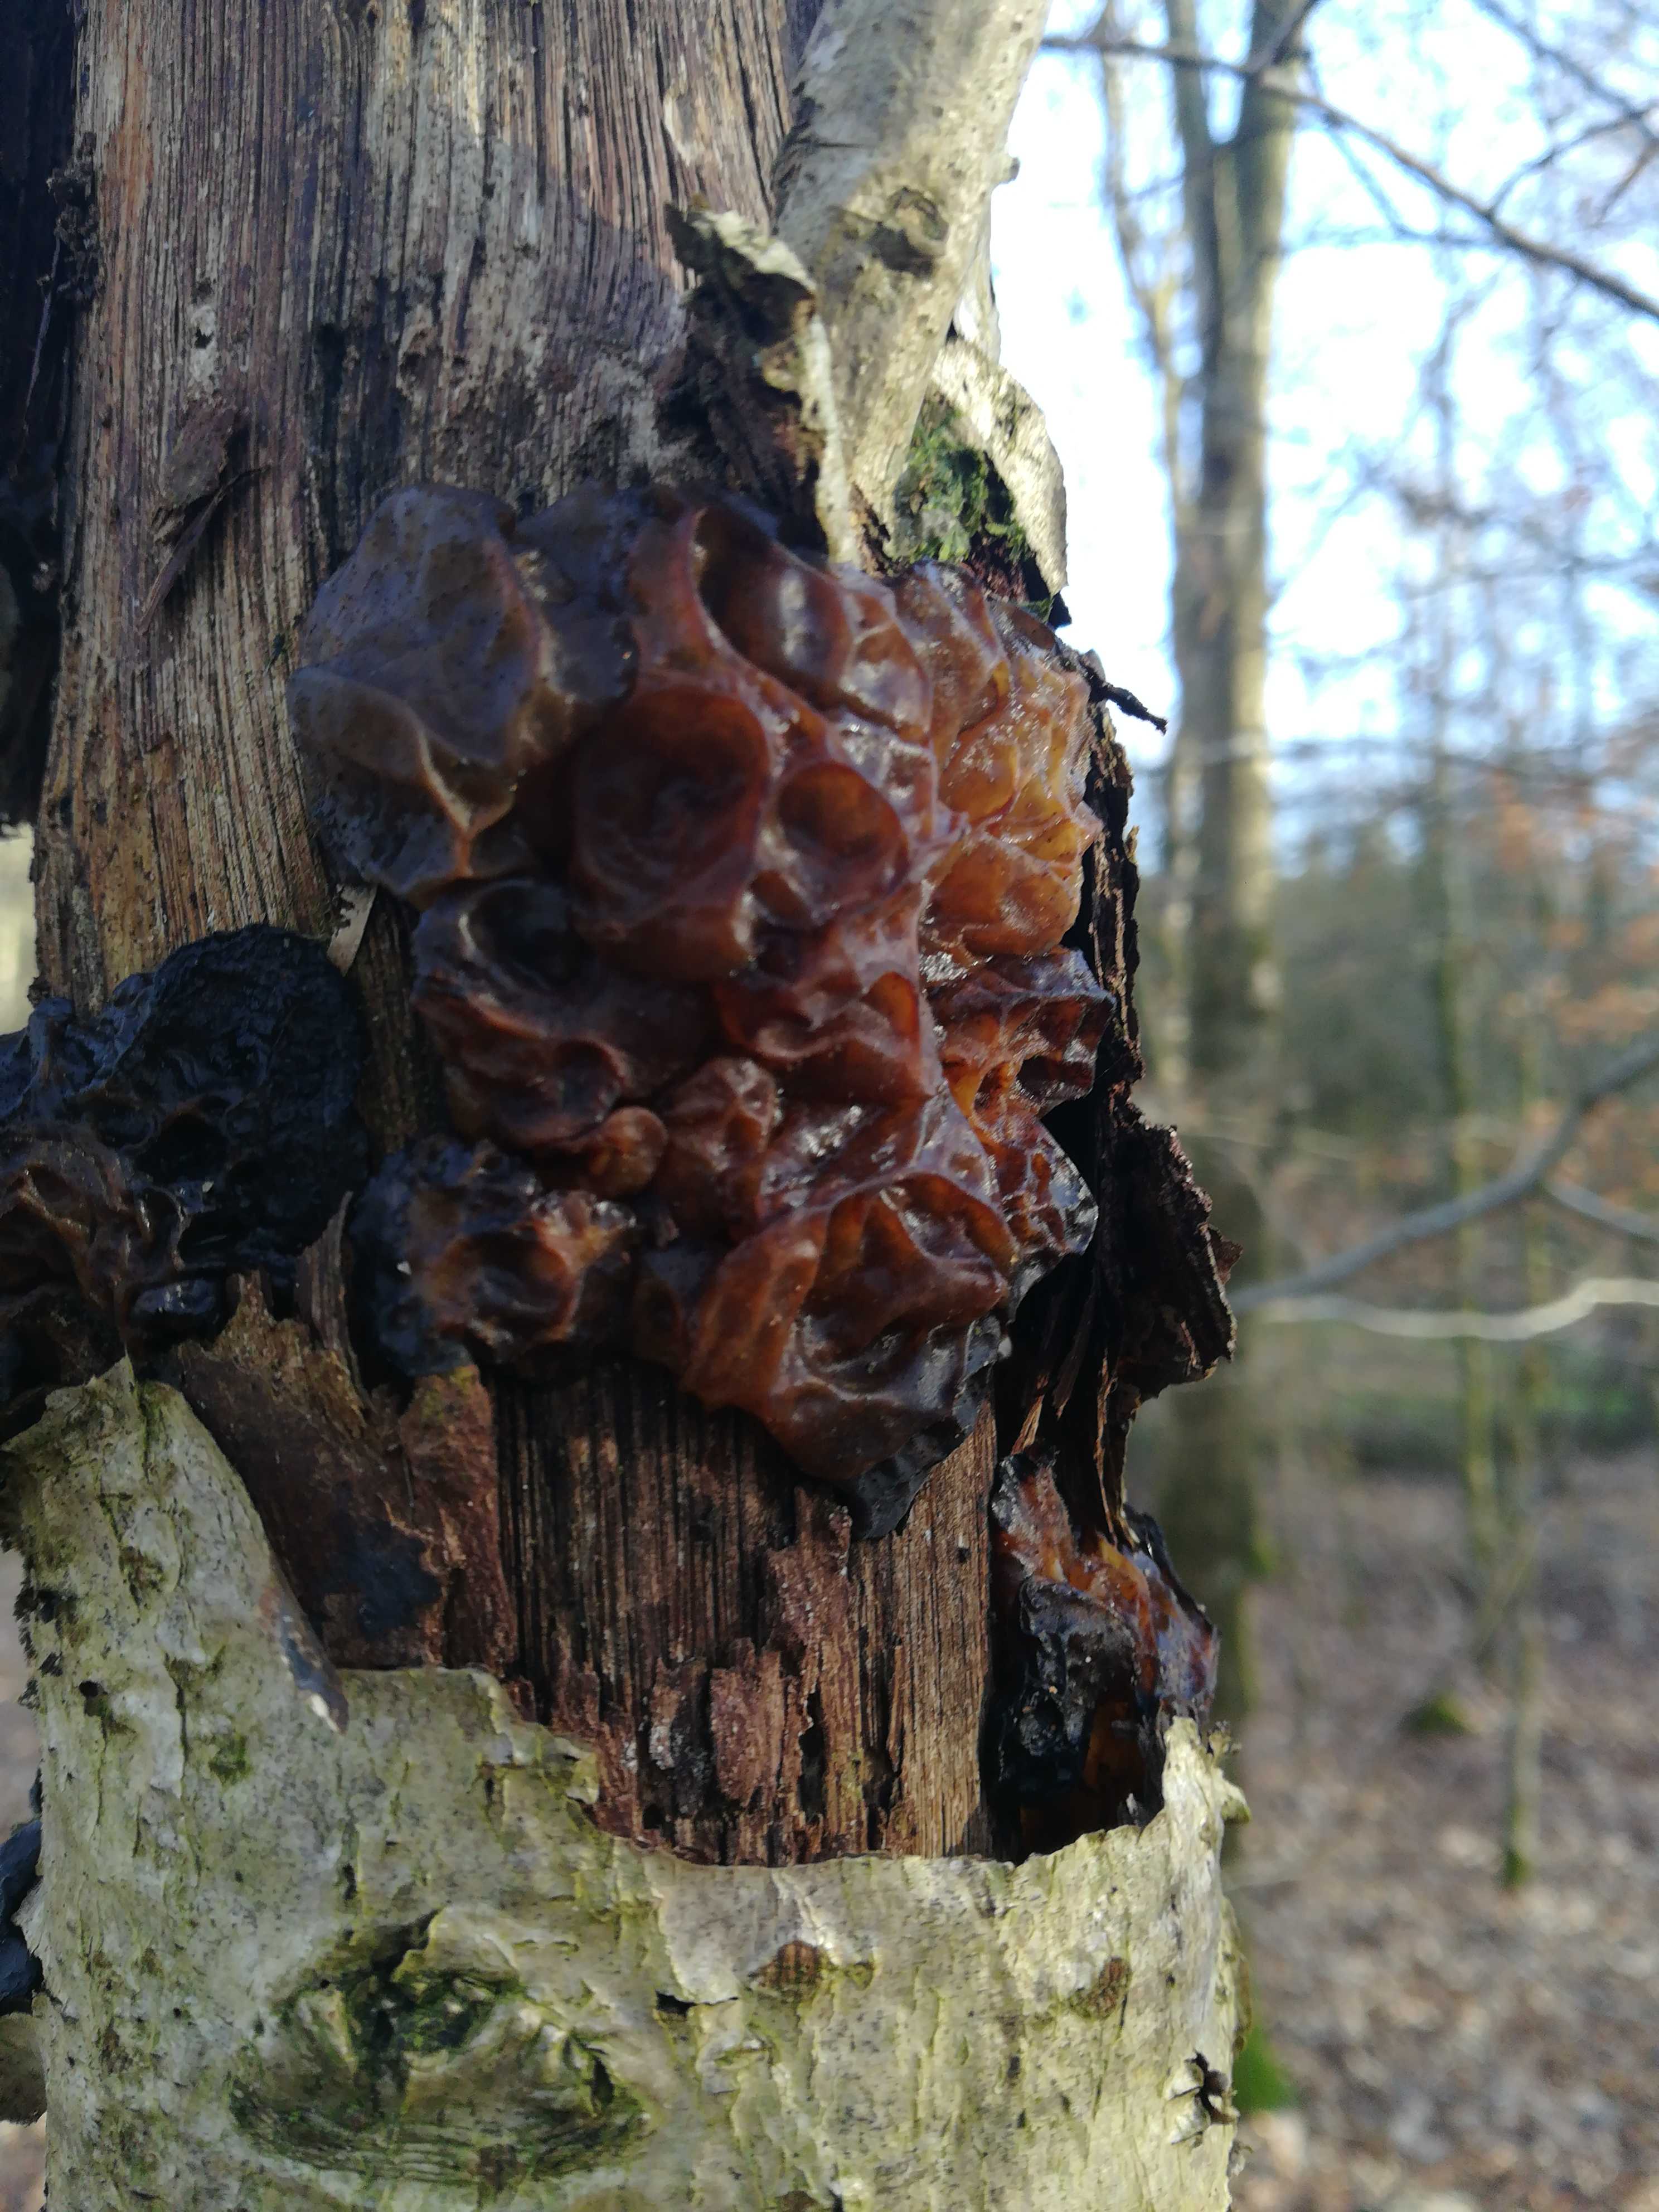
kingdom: Fungi
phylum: Basidiomycota
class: Tremellomycetes
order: Tremellales
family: Tremellaceae
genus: Phaeotremella
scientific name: Phaeotremella frondosa
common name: kæmpe-bævresvamp
